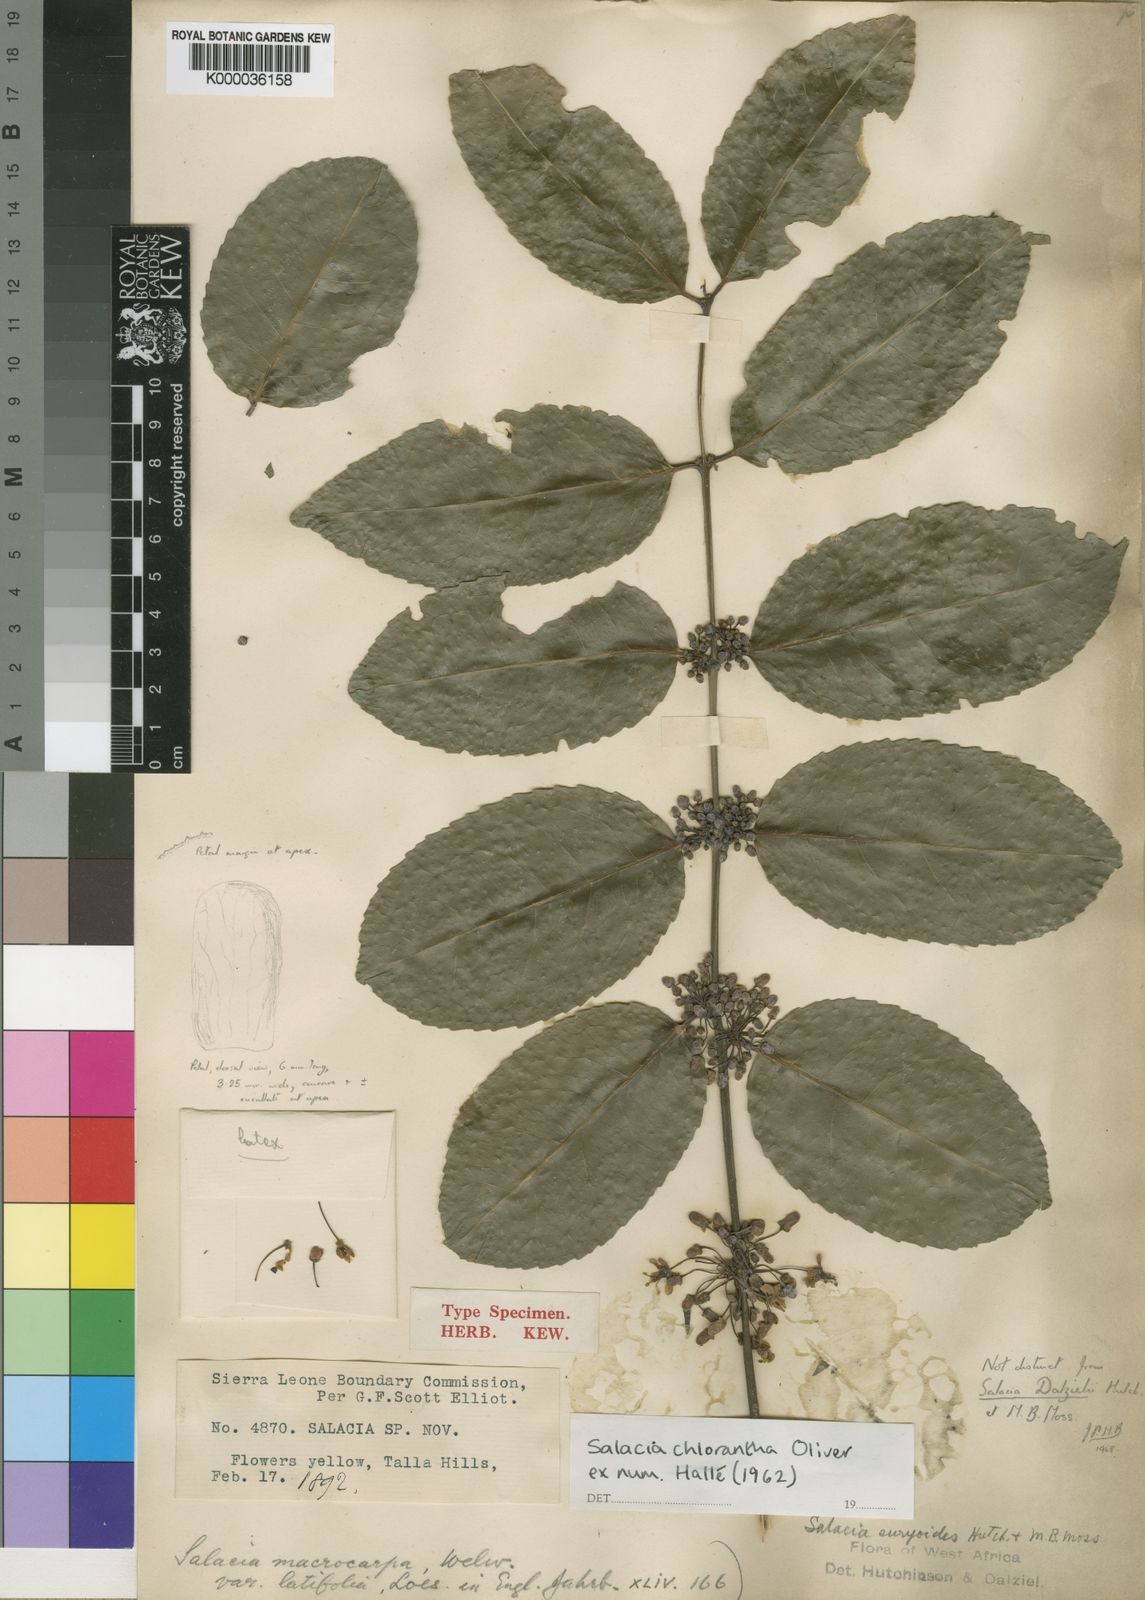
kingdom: Plantae
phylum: Tracheophyta
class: Magnoliopsida
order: Celastrales
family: Celastraceae
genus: Salacia
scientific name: Salacia chlorantha
